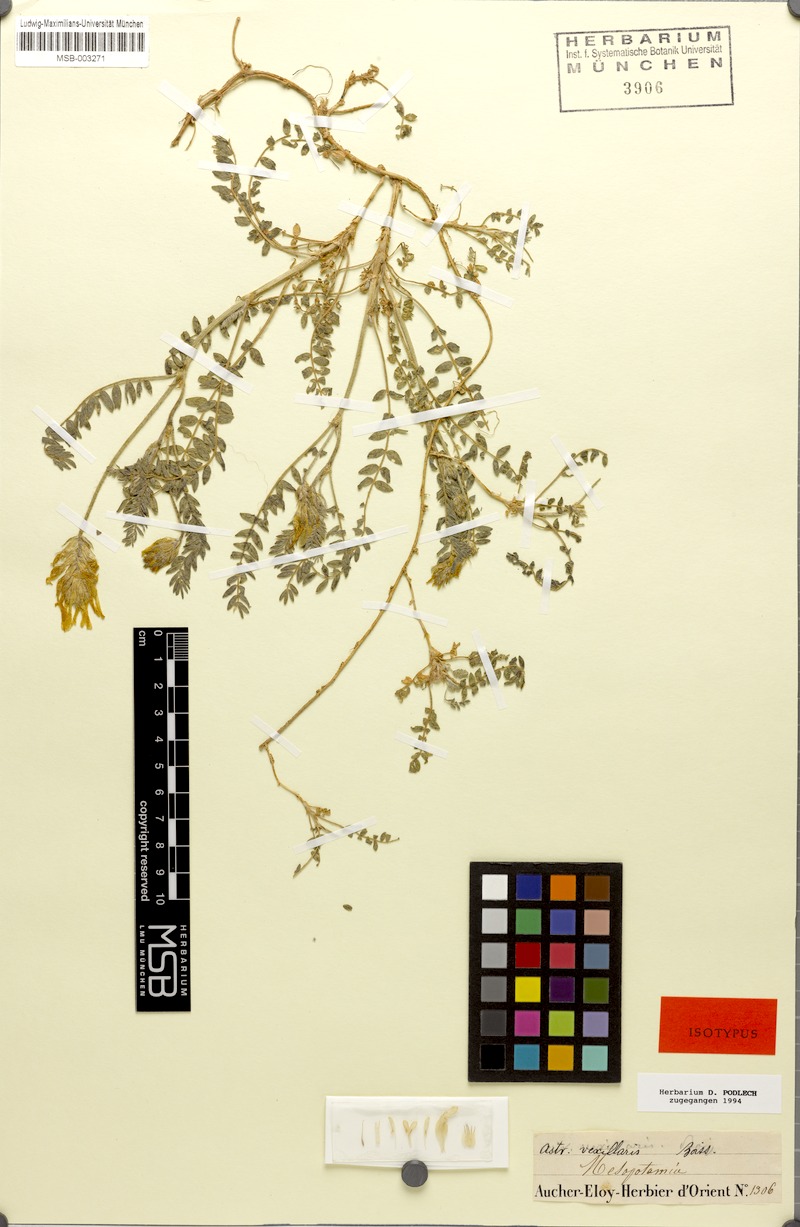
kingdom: Plantae
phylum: Tracheophyta
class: Magnoliopsida
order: Fabales
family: Fabaceae
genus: Astragalus
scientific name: Astragalus vexillaris
